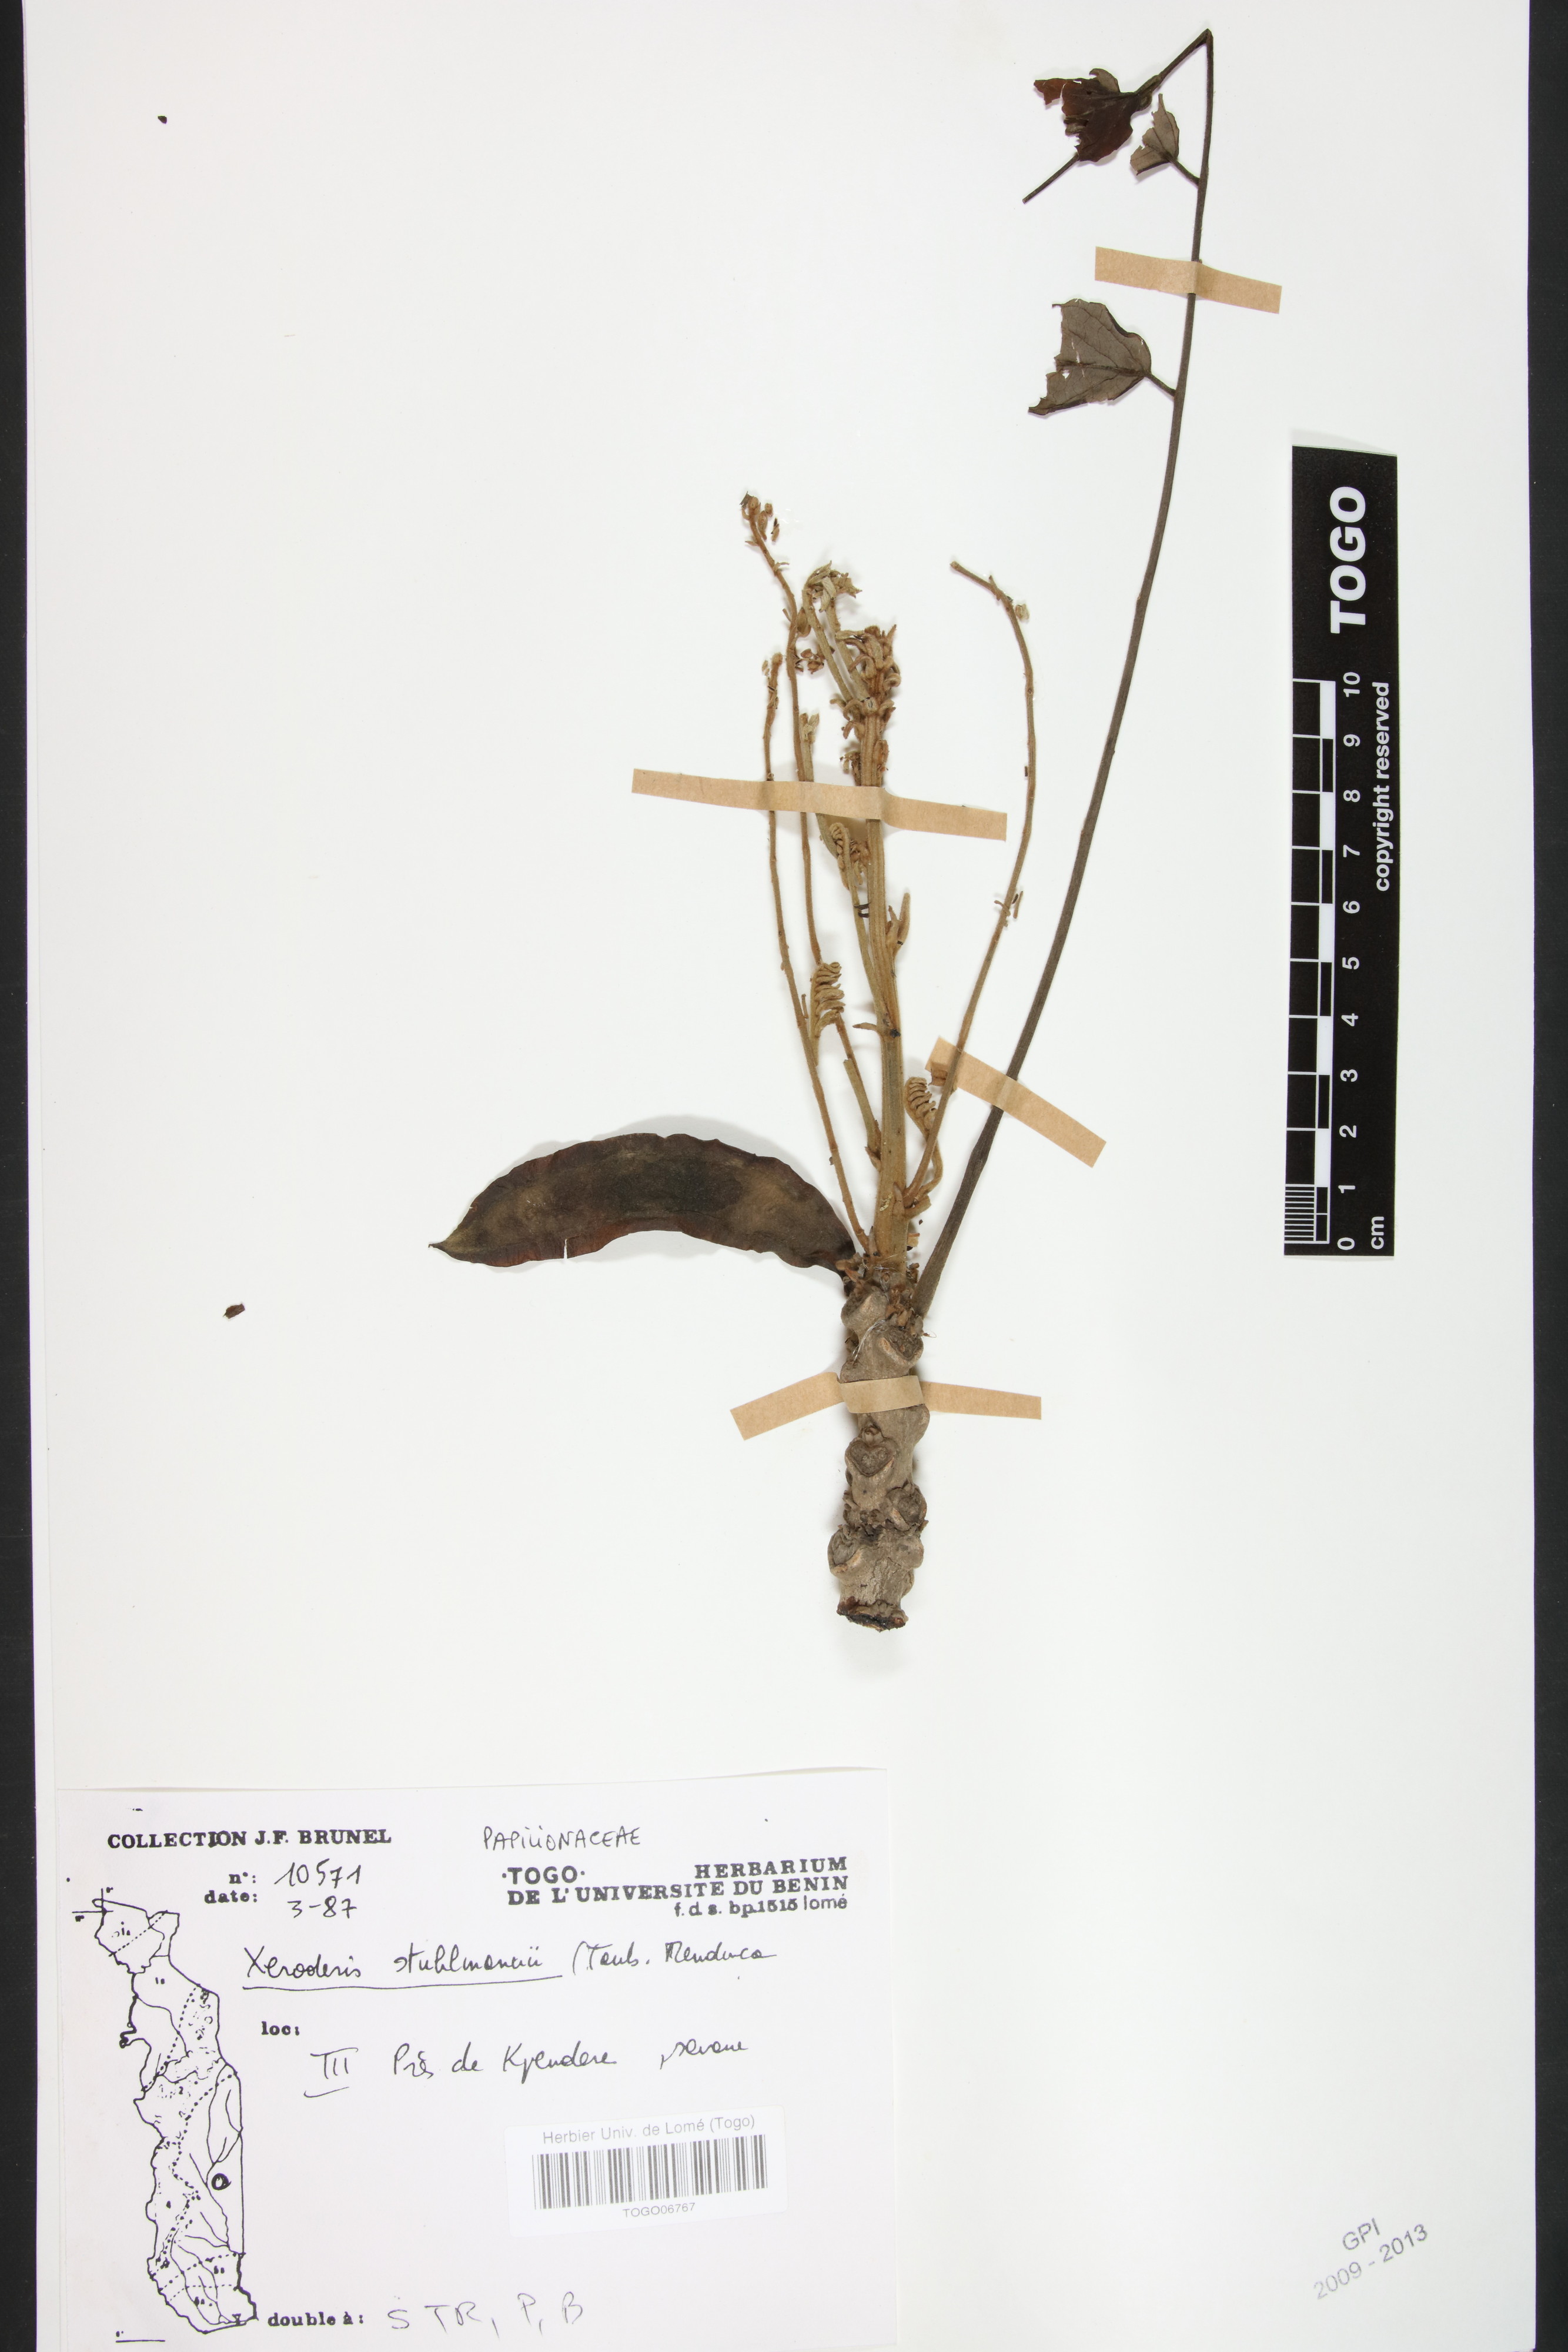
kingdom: Plantae
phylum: Tracheophyta
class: Magnoliopsida
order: Fabales
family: Fabaceae
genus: Aganope
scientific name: Aganope stuhlmannii
